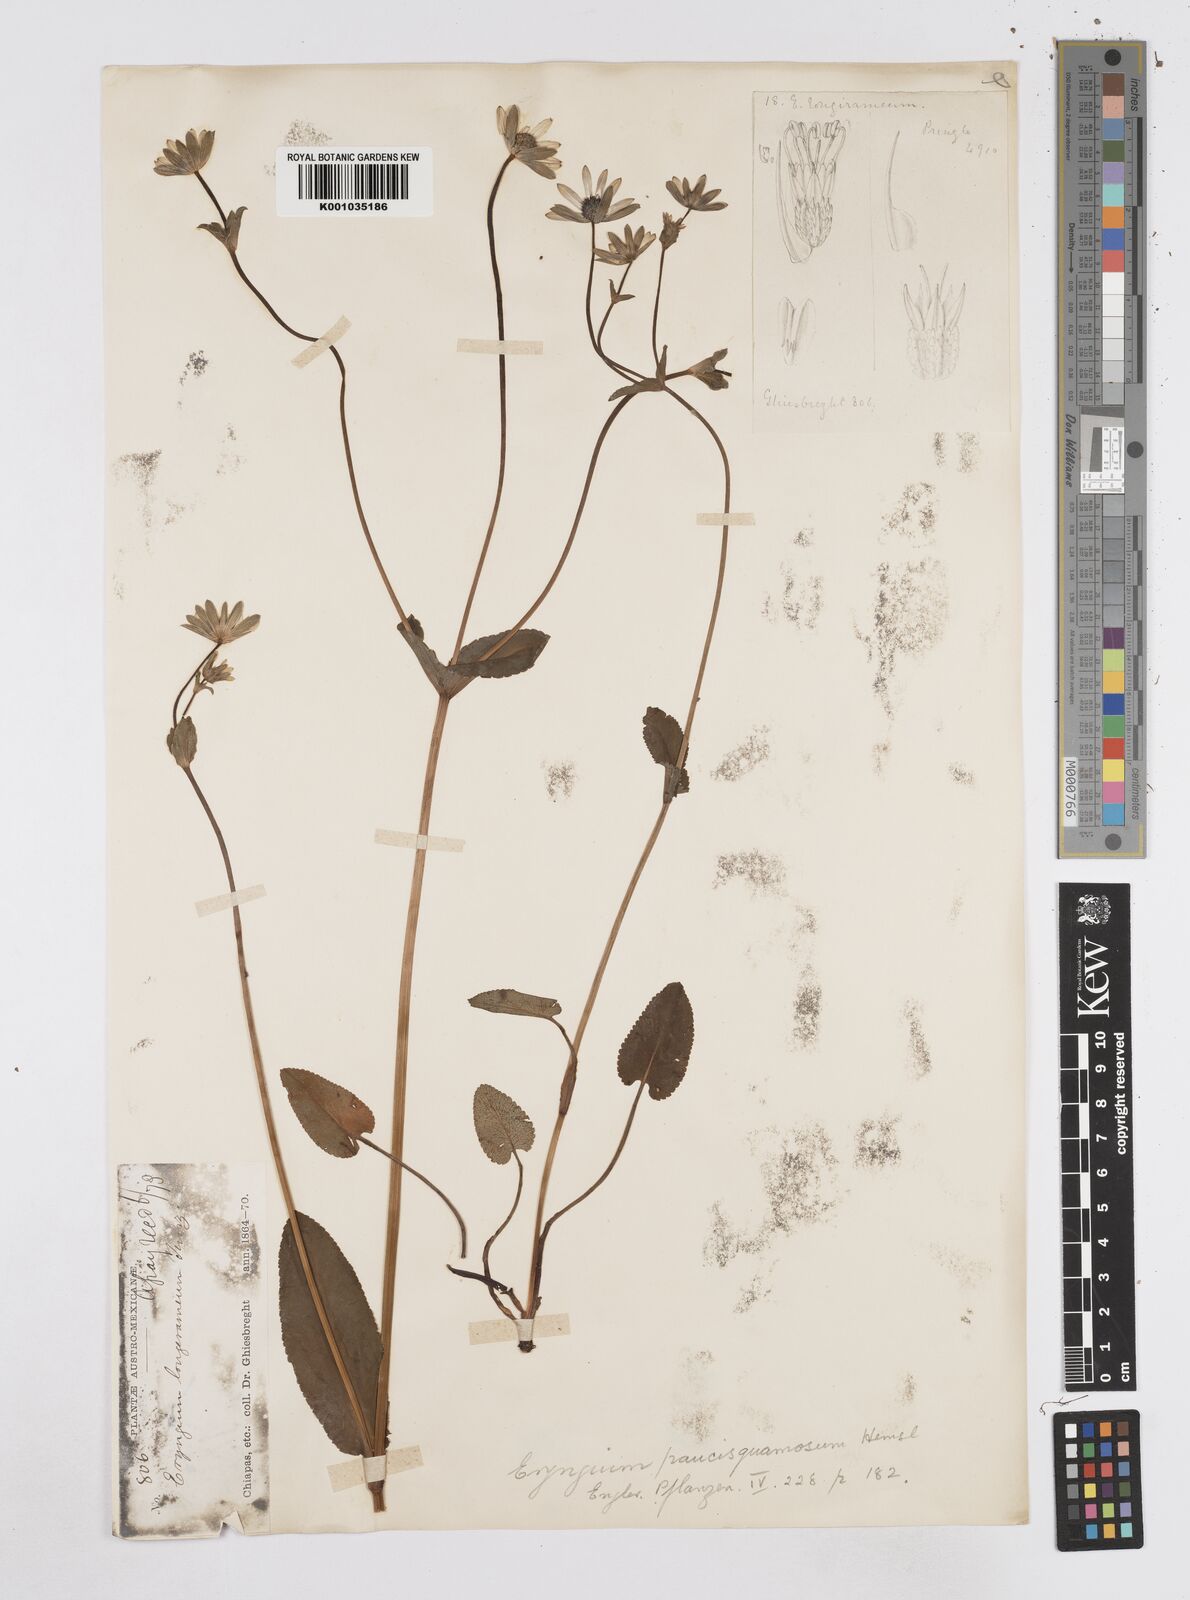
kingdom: Plantae
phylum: Tracheophyta
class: Magnoliopsida
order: Apiales
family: Apiaceae
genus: Eryngium
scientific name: Eryngium gracile
